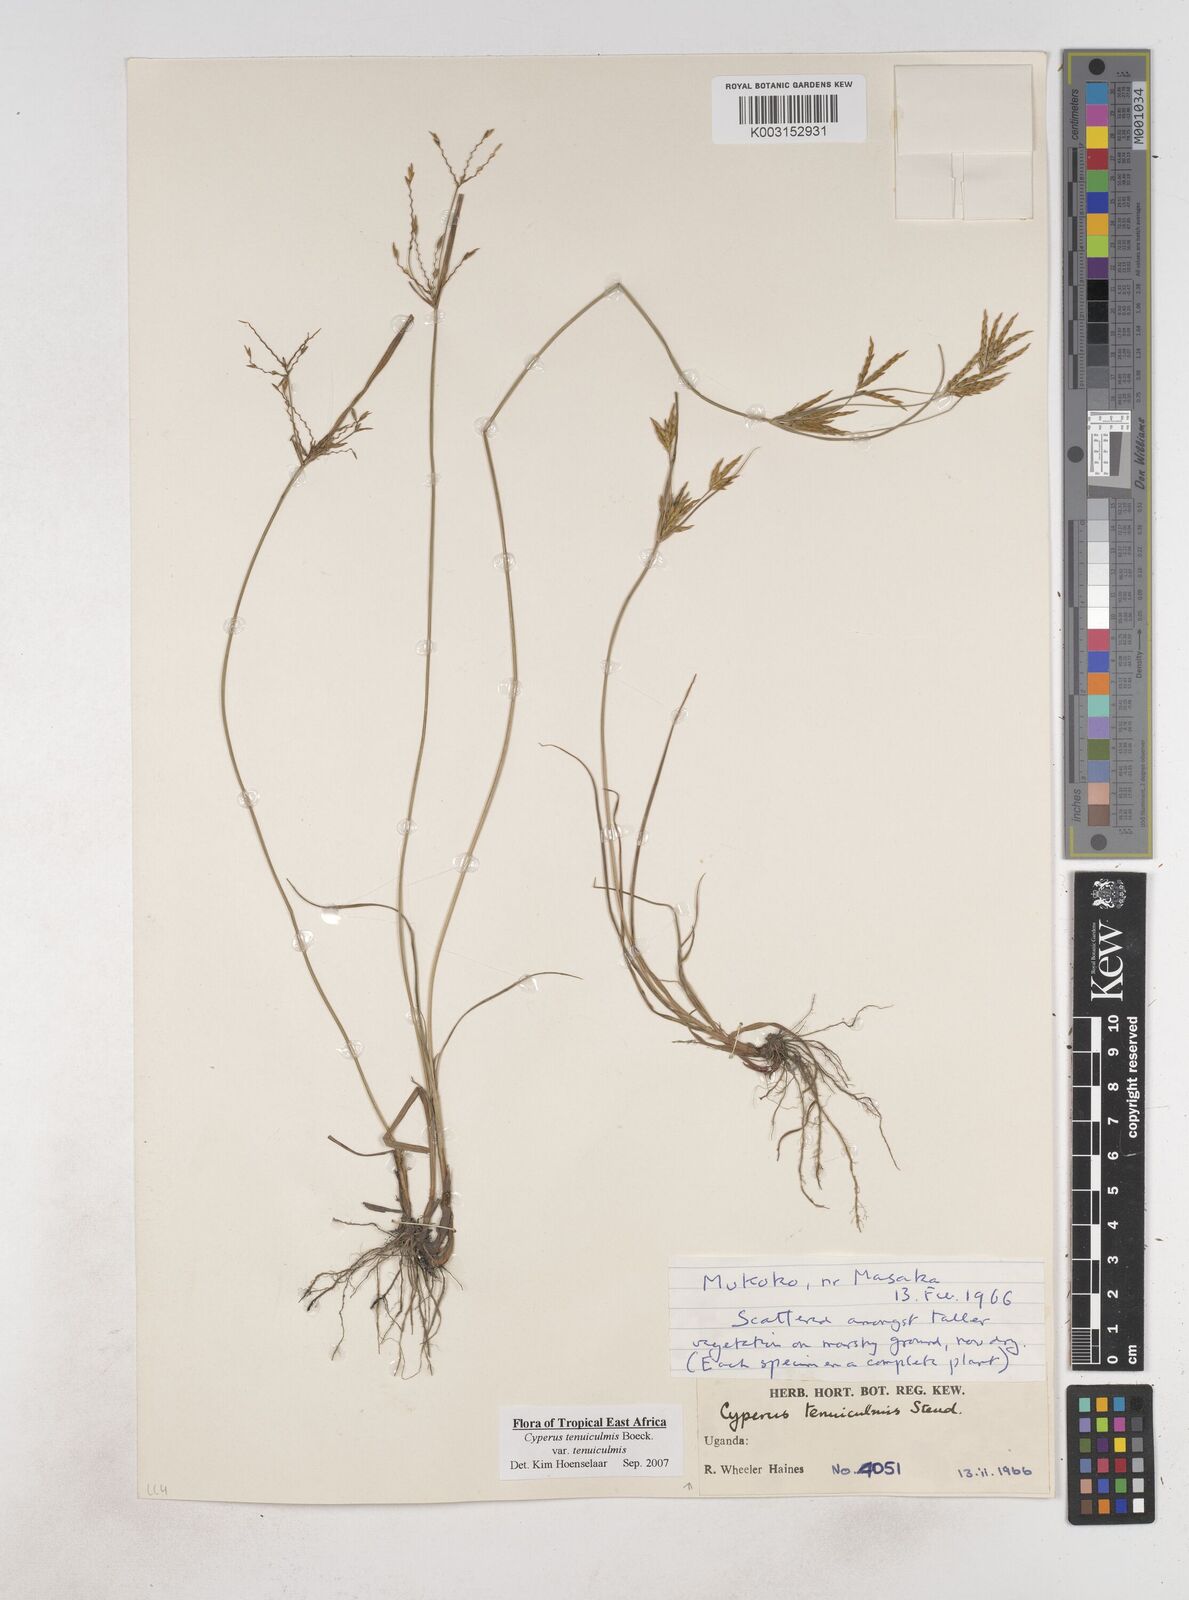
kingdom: Plantae
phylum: Tracheophyta
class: Liliopsida
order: Poales
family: Cyperaceae
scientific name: Cyperaceae
